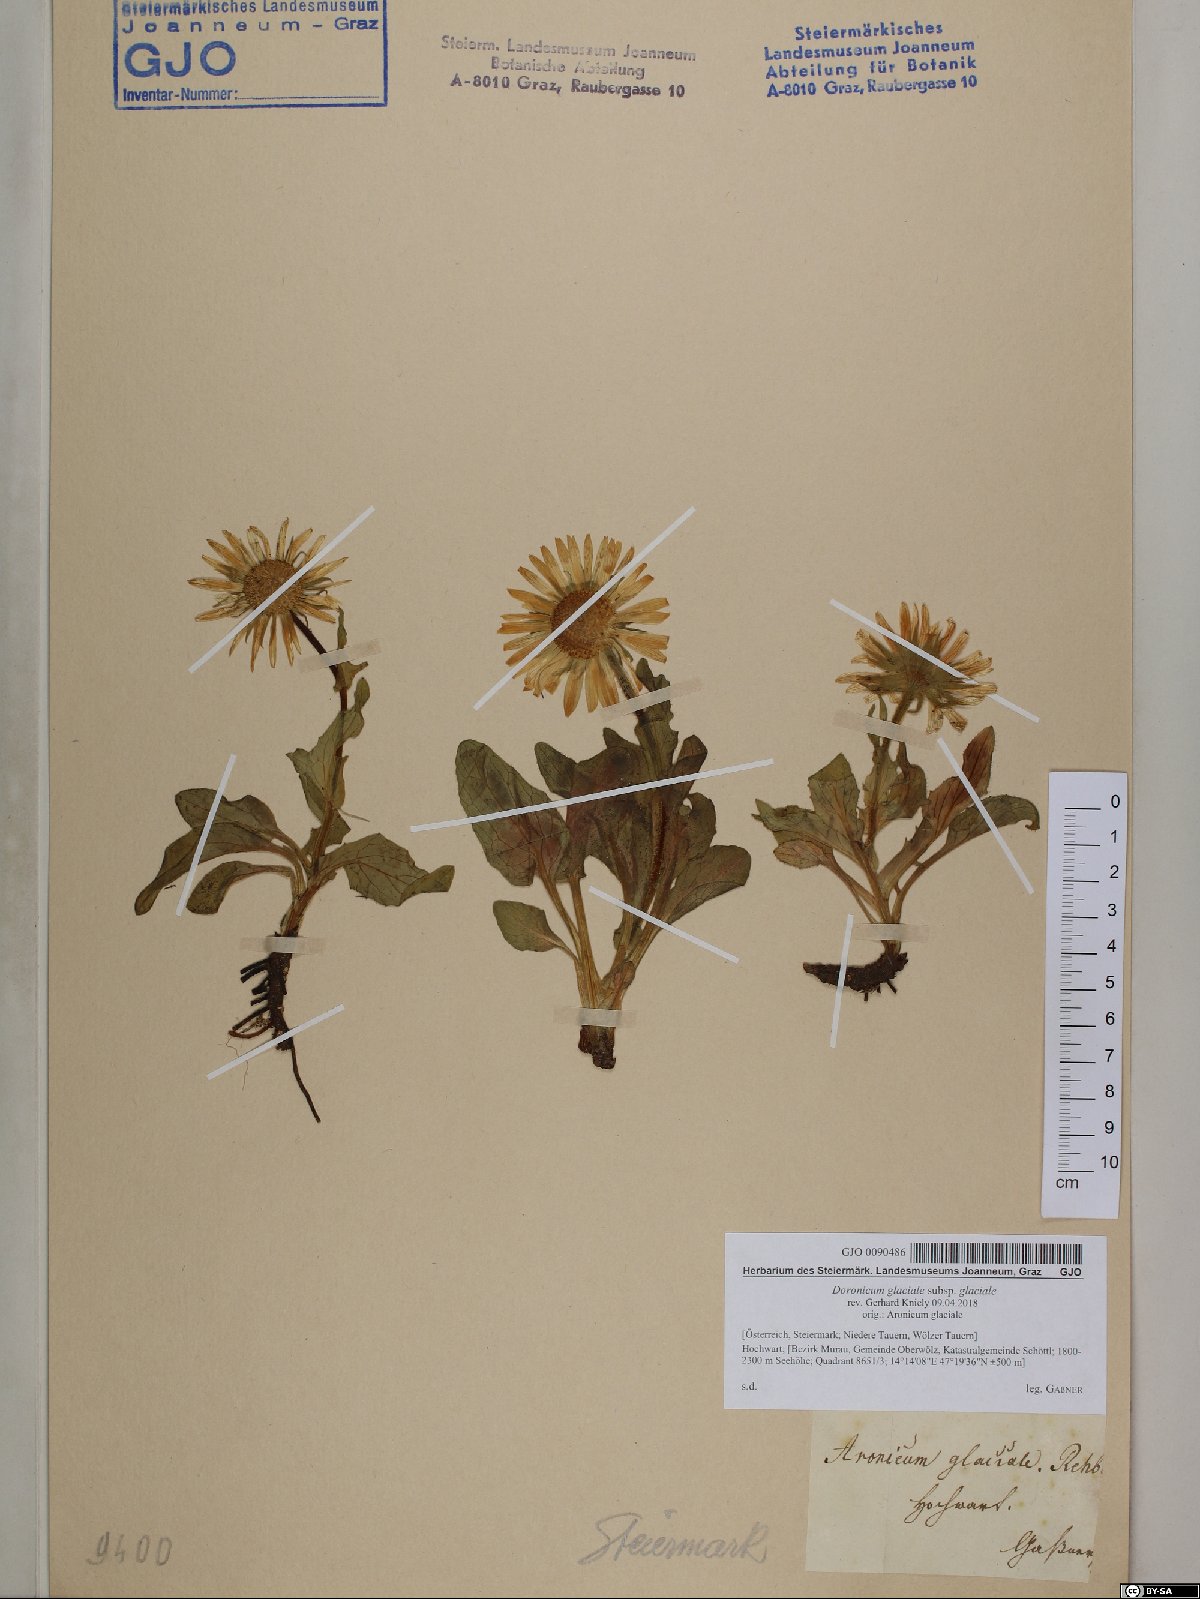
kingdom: Plantae
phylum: Tracheophyta
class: Magnoliopsida
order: Asterales
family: Asteraceae
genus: Doronicum
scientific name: Doronicum glaciale
